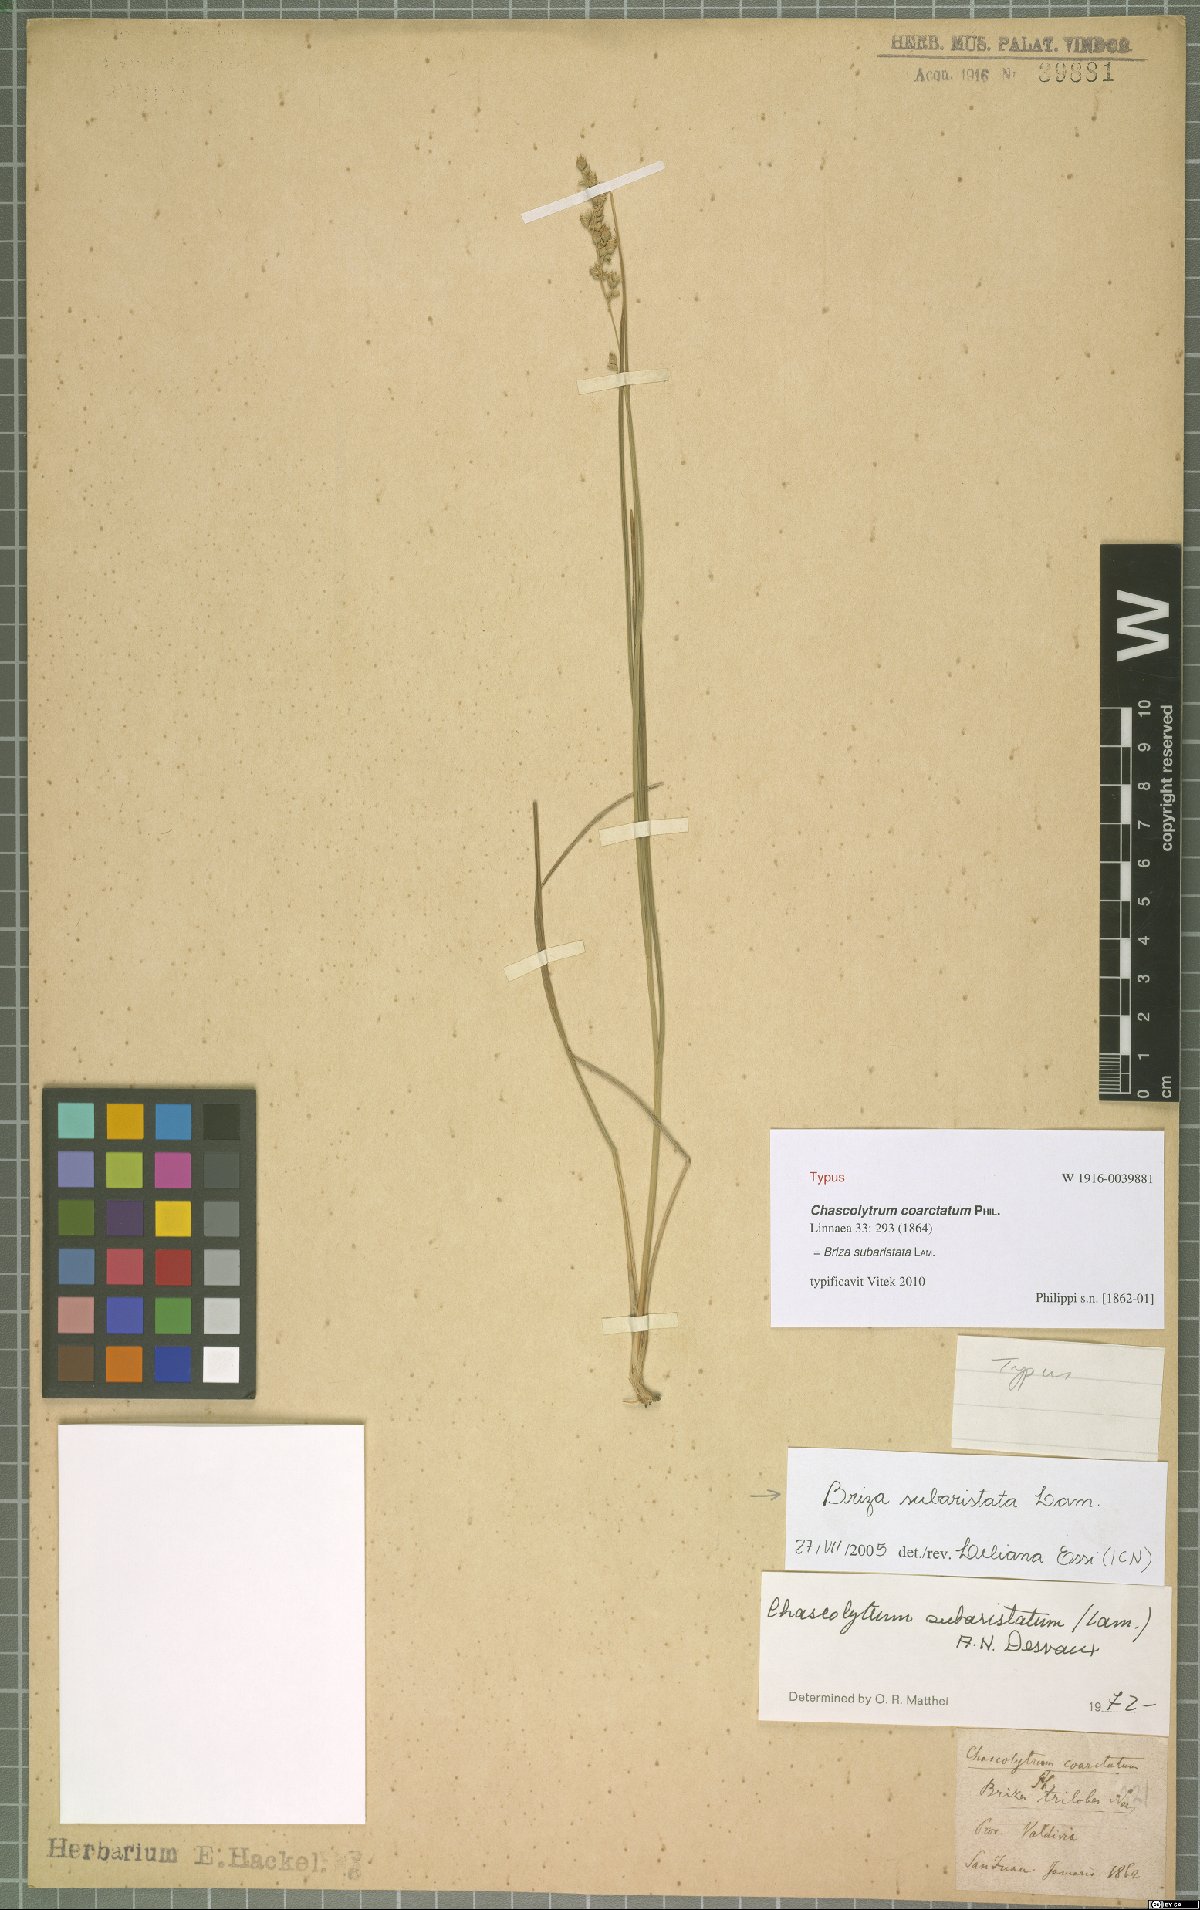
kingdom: Plantae
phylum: Tracheophyta
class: Liliopsida
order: Poales
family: Poaceae
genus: Chascolytrum
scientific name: Chascolytrum subaristatum
